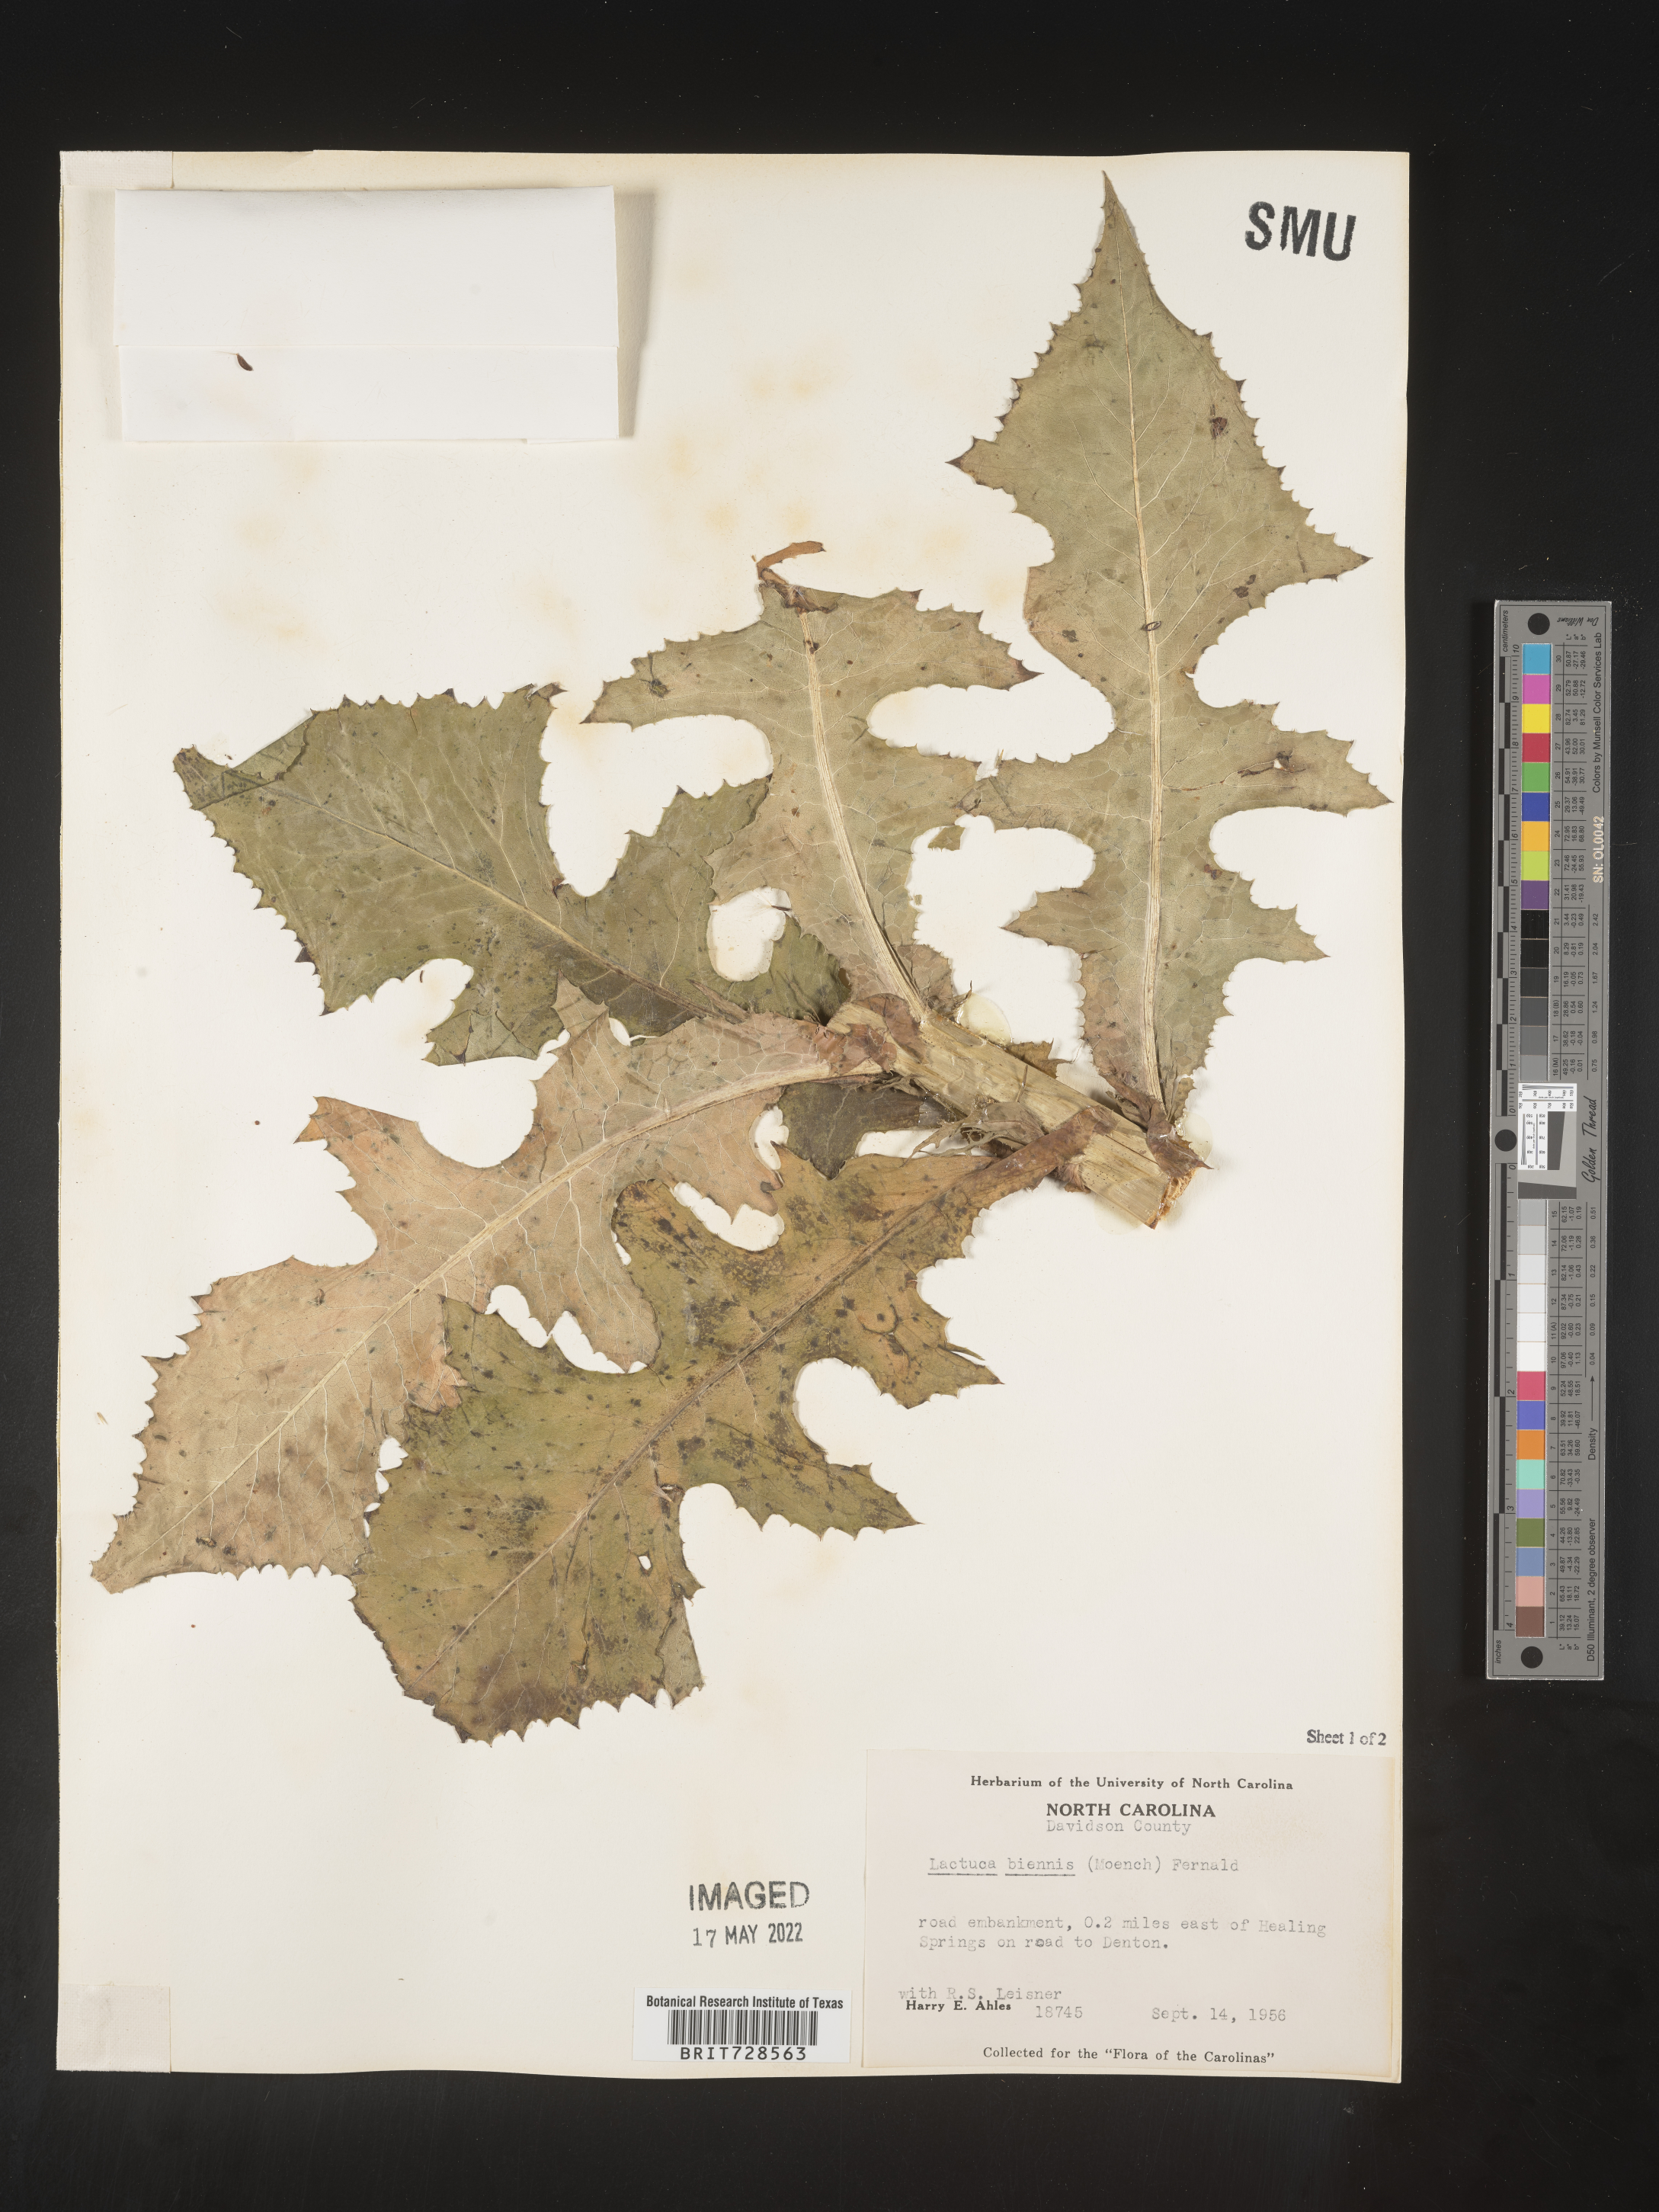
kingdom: Plantae
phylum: Tracheophyta
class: Magnoliopsida
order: Asterales
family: Asteraceae
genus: Lactuca
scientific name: Lactuca biennis
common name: Blue wood lettuce
